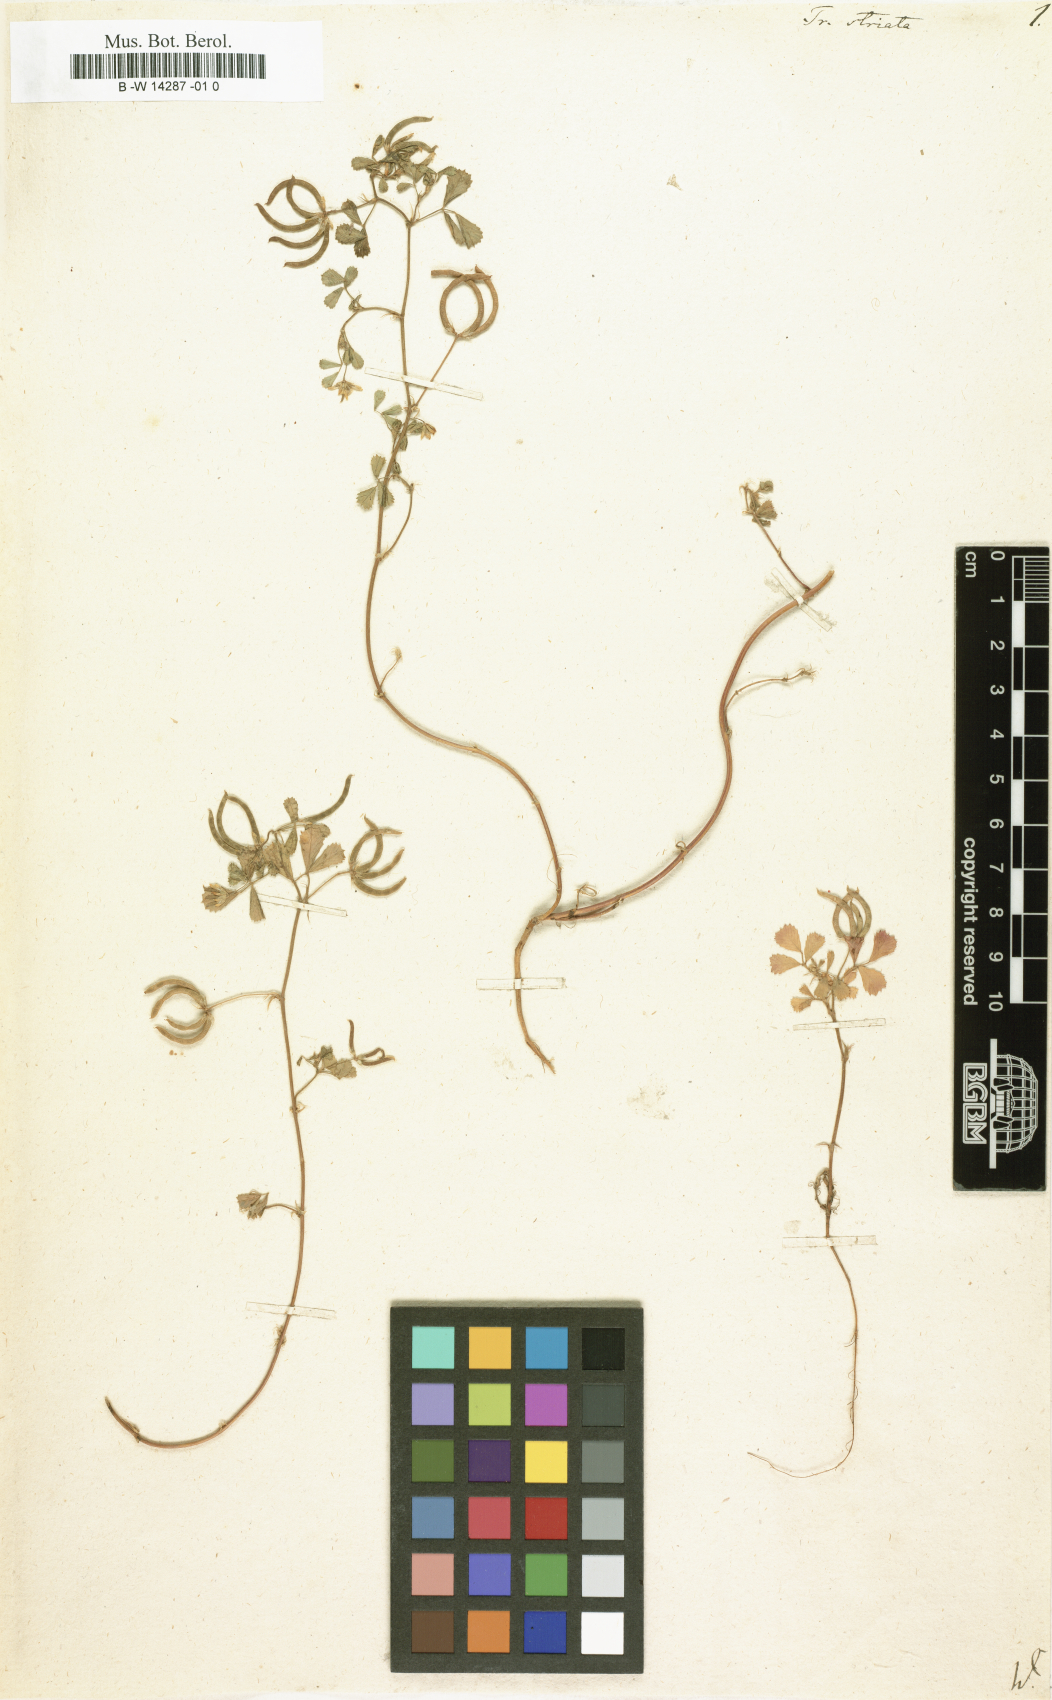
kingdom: Plantae
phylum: Tracheophyta
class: Magnoliopsida
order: Fabales
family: Fabaceae
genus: Trigonella
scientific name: Trigonella striata
